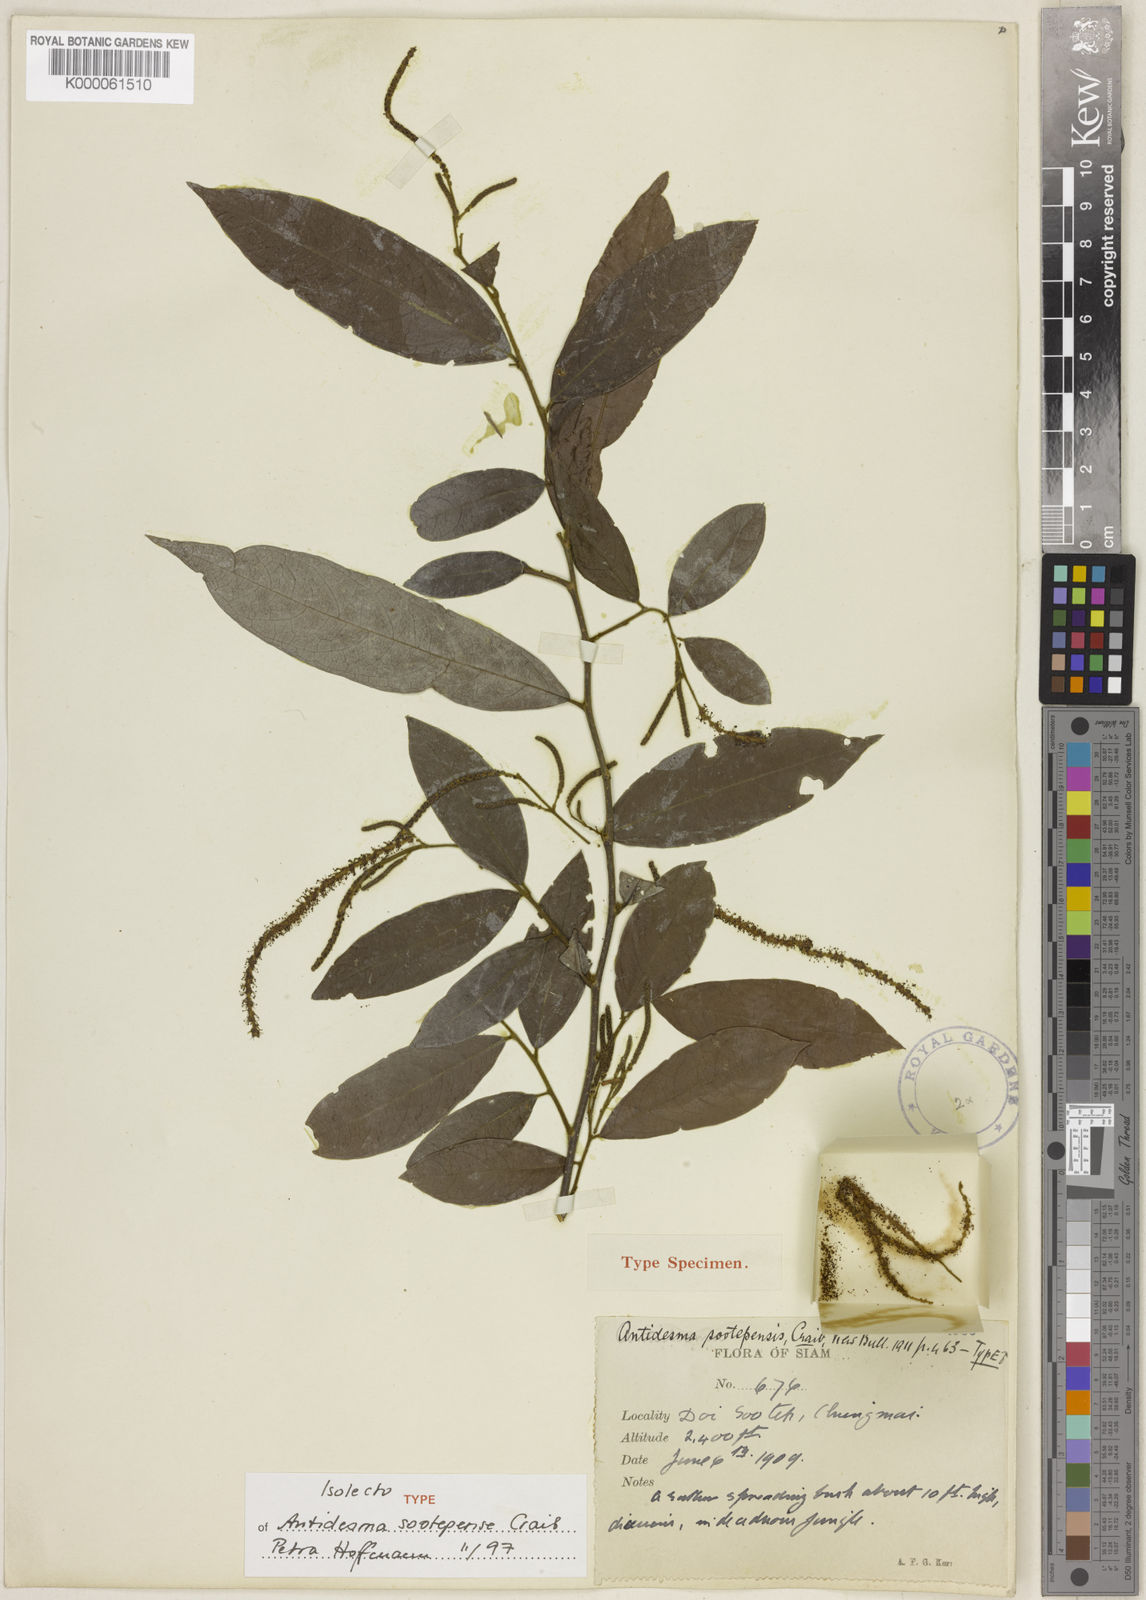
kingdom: Plantae
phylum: Tracheophyta
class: Magnoliopsida
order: Malpighiales
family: Phyllanthaceae
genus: Antidesma
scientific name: Antidesma sootepense
